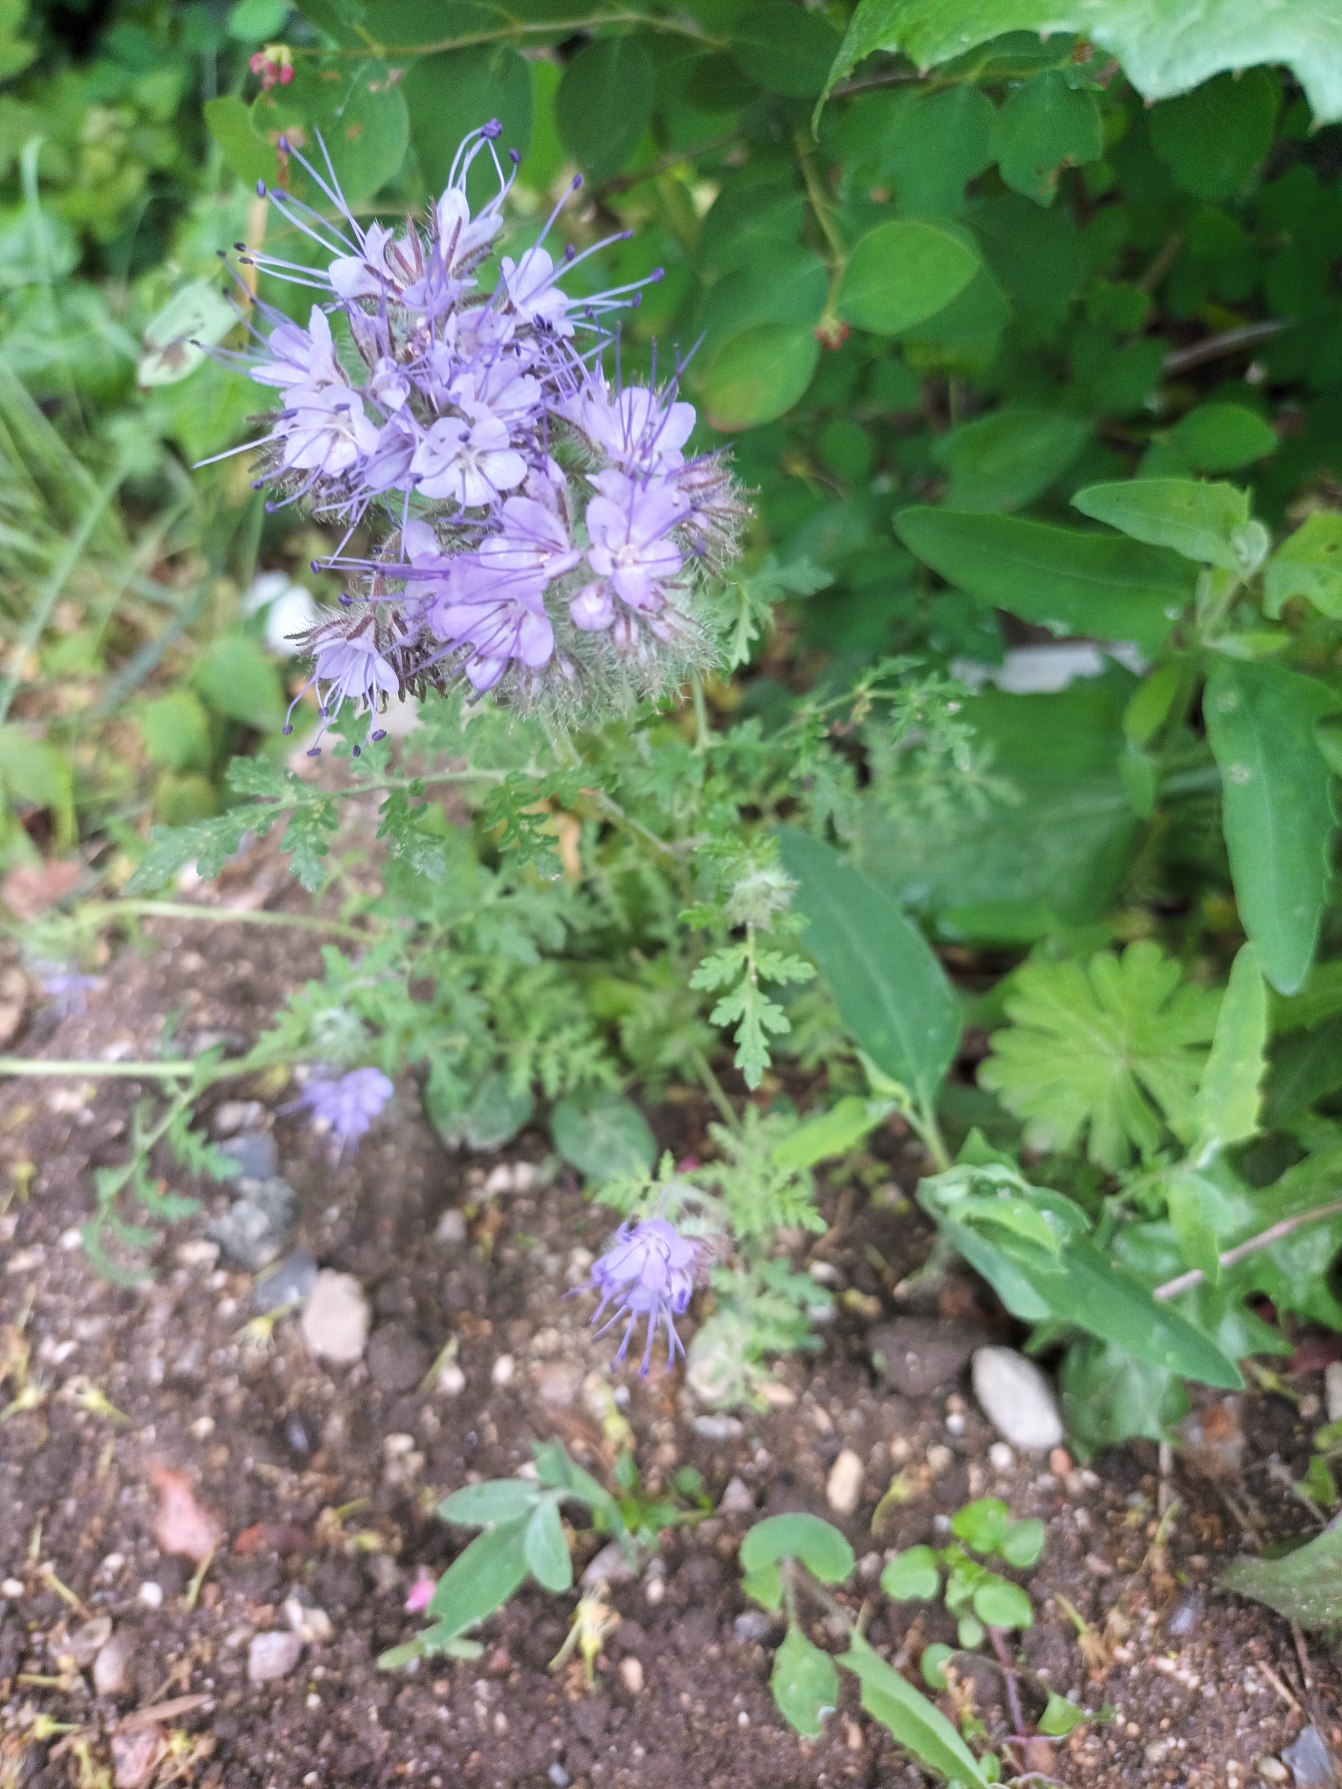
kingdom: Plantae
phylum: Tracheophyta
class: Magnoliopsida
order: Boraginales
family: Hydrophyllaceae
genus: Phacelia
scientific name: Phacelia tanacetifolia
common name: Honningurt
